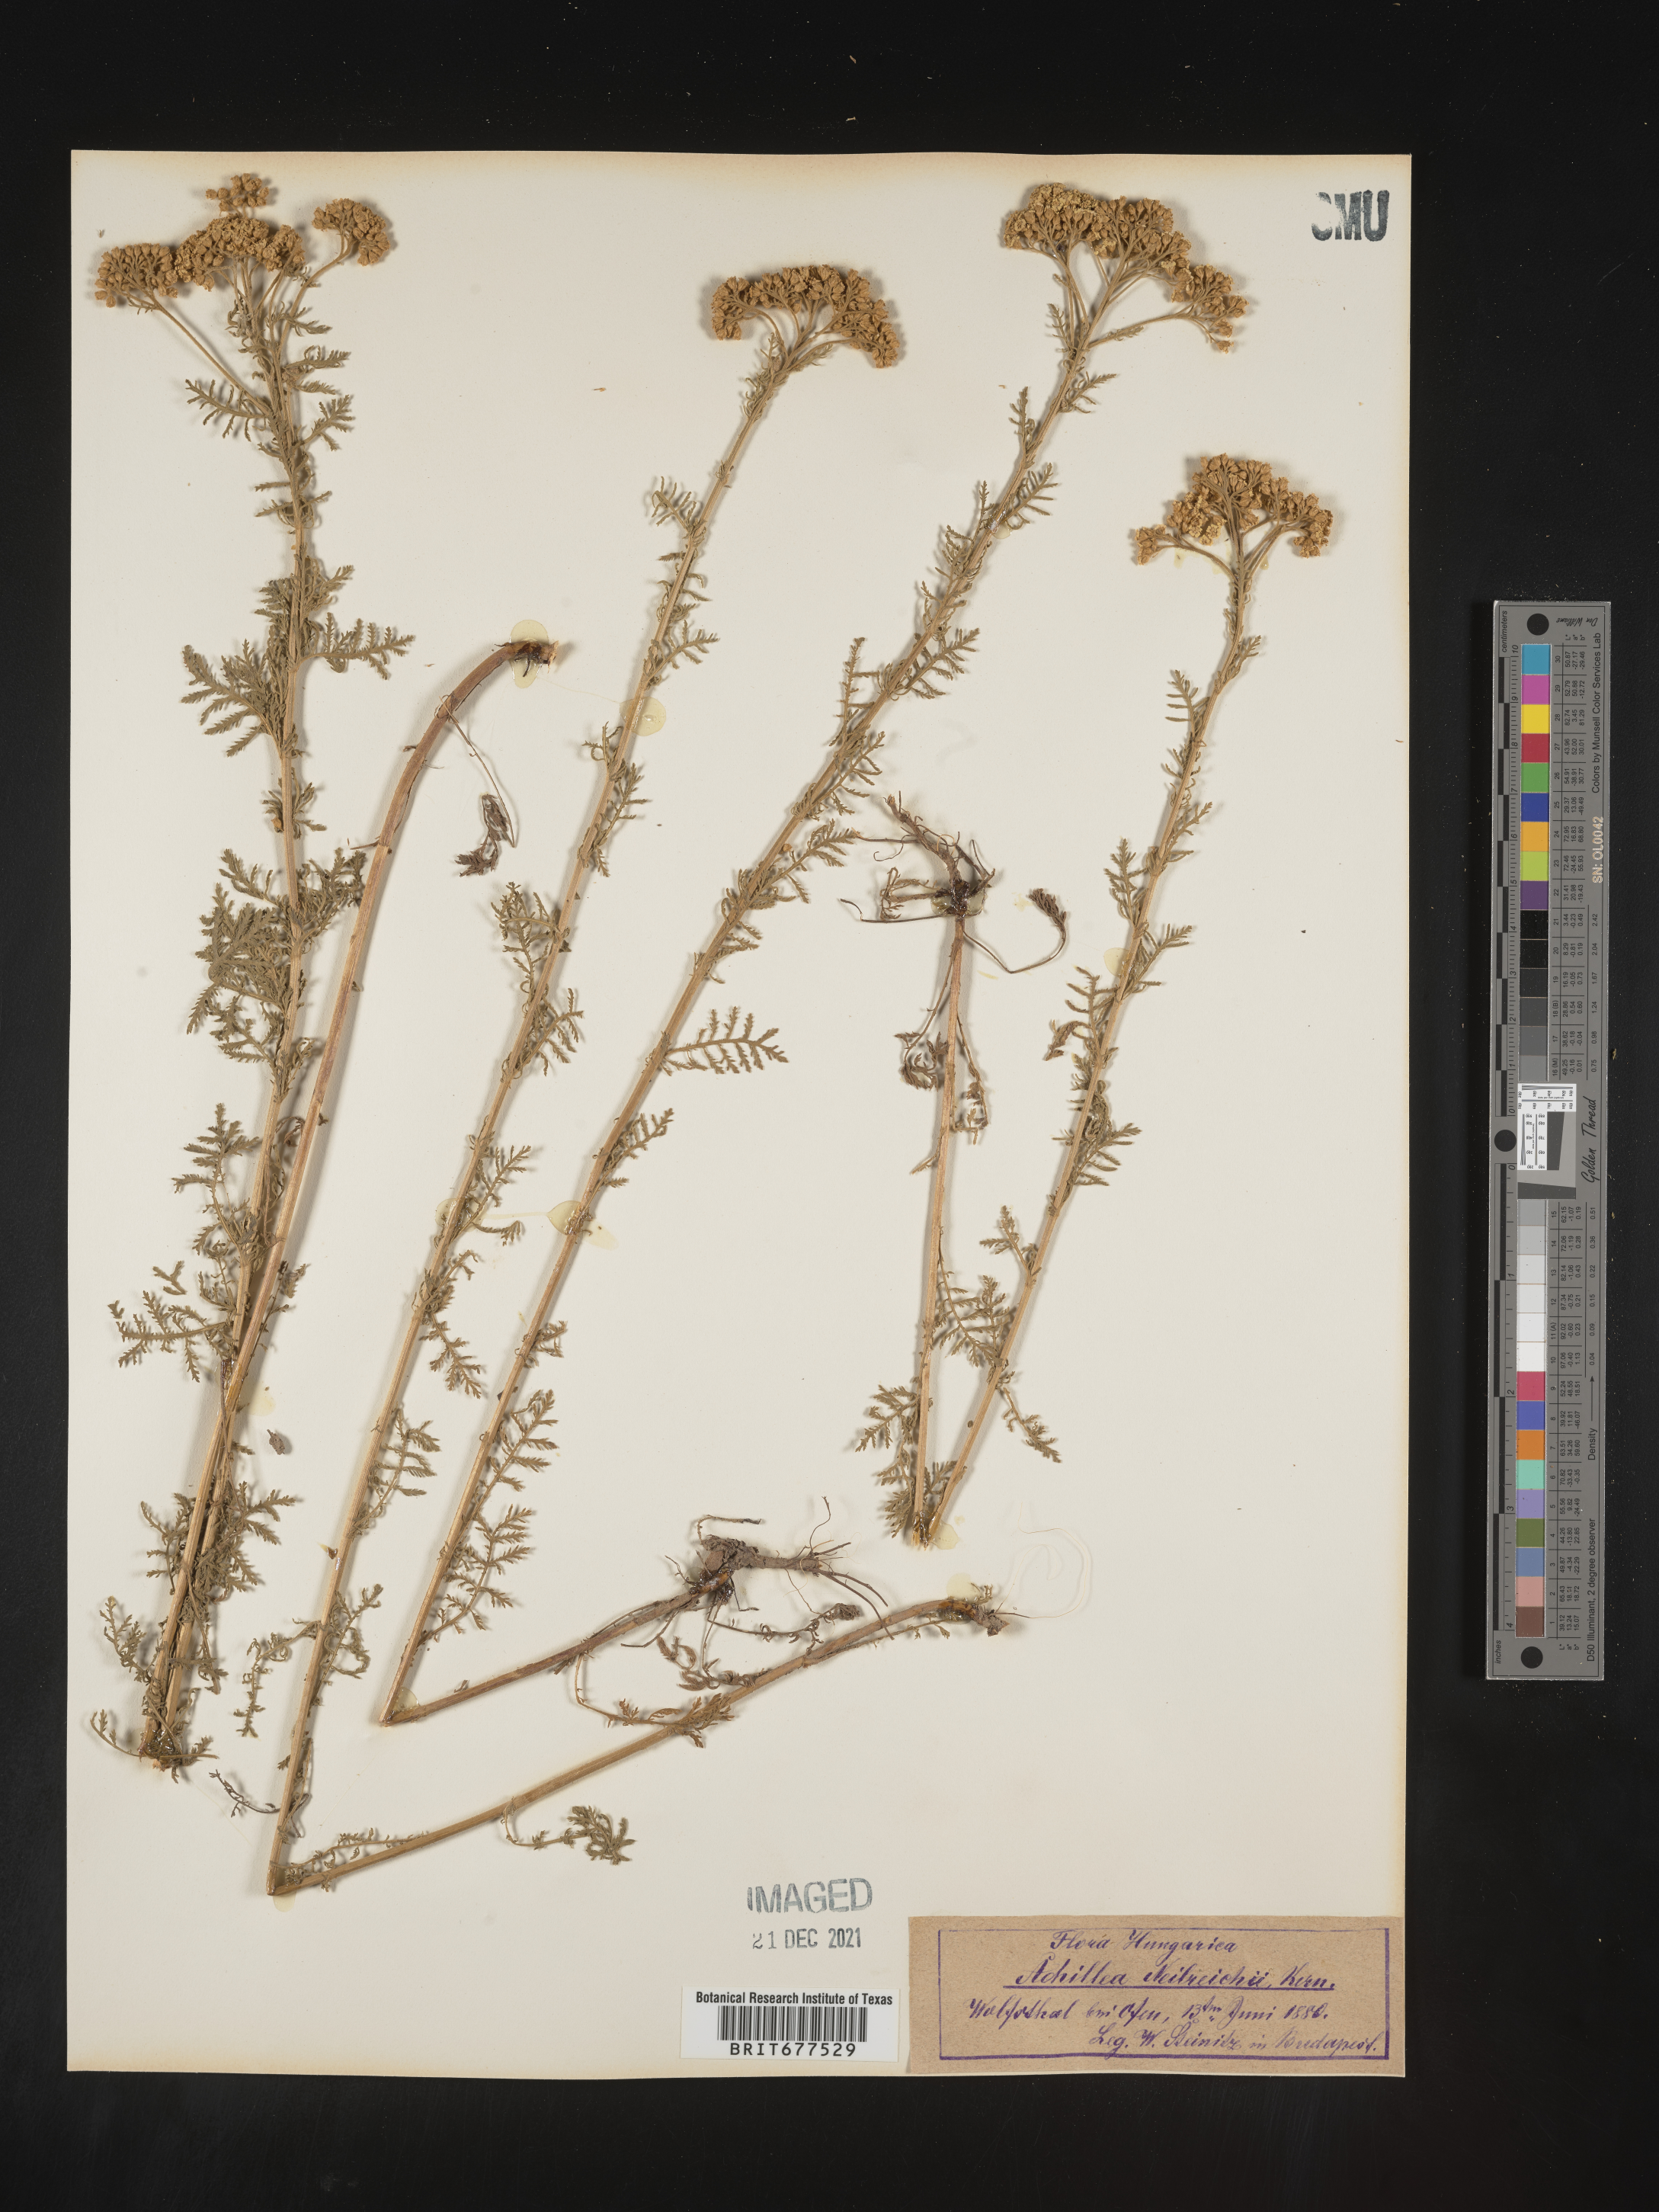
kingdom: Plantae
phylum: Tracheophyta
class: Magnoliopsida
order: Asterales
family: Asteraceae
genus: Achillea
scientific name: Achillea
